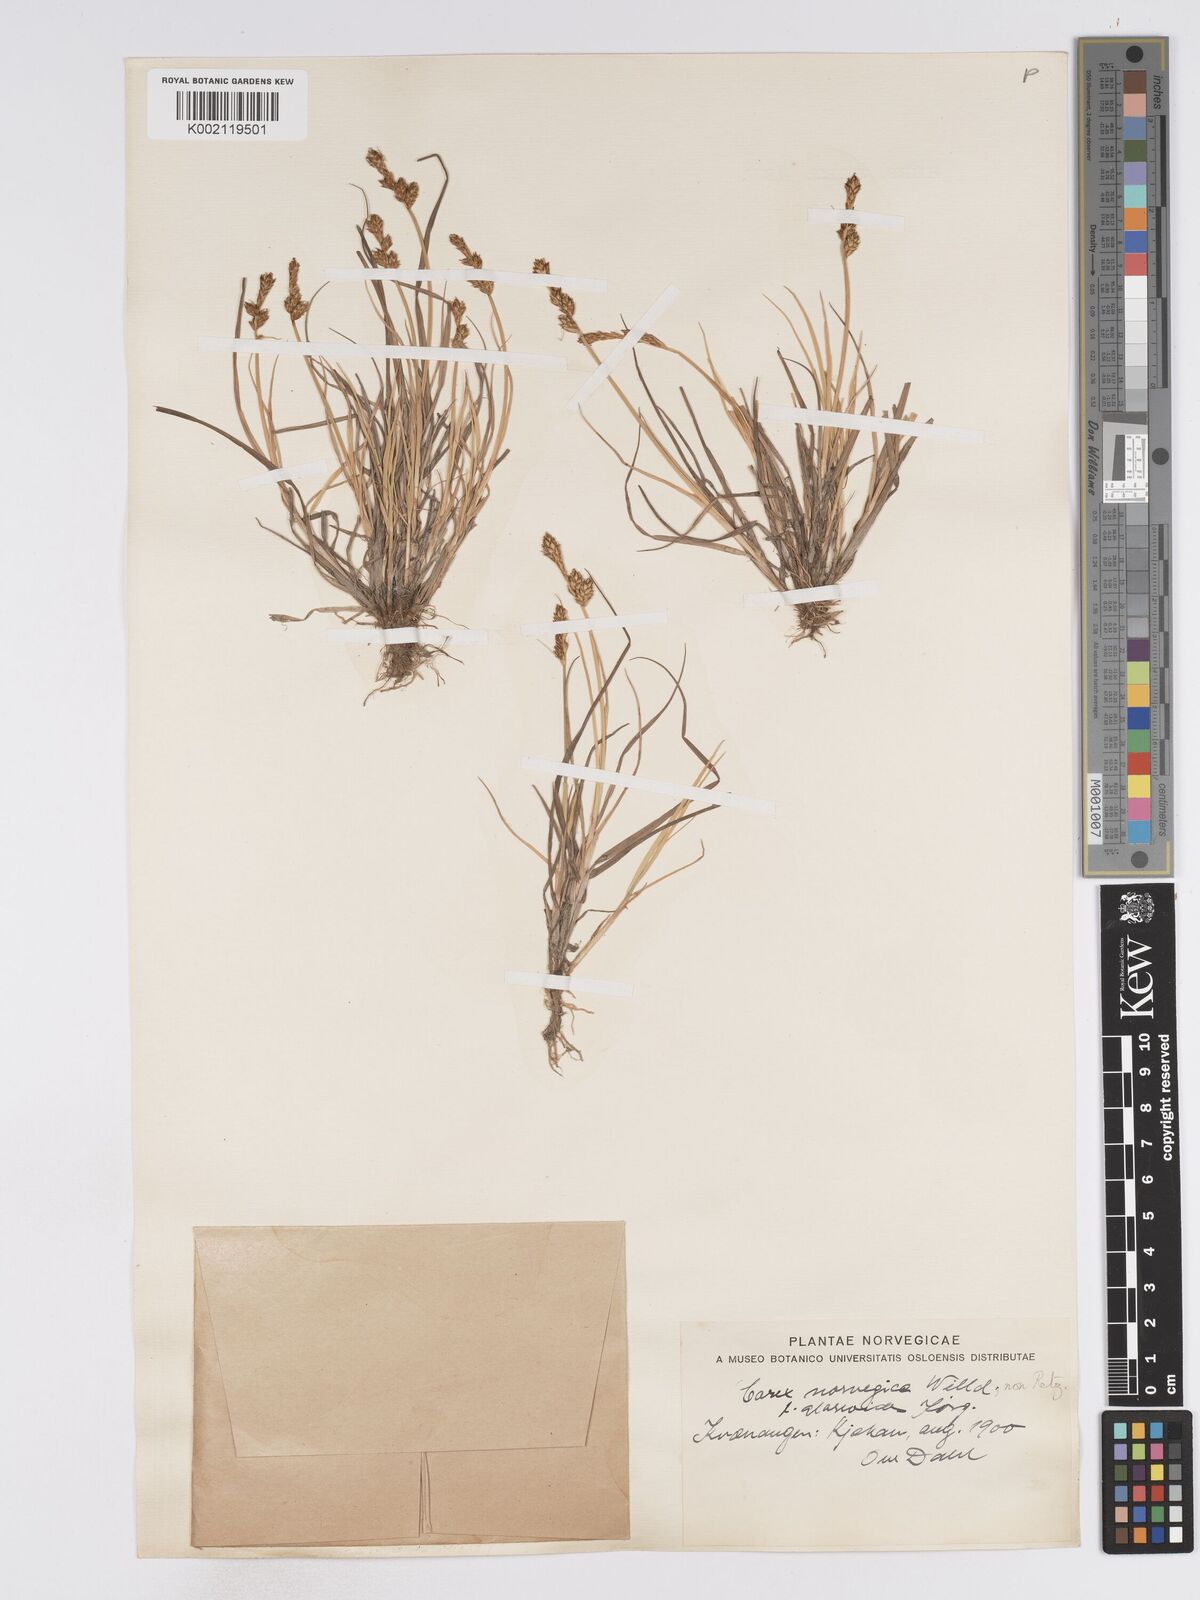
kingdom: Plantae
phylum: Tracheophyta
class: Liliopsida
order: Poales
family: Cyperaceae
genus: Carex
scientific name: Carex mackenziei
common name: Mackenzie's sedge
